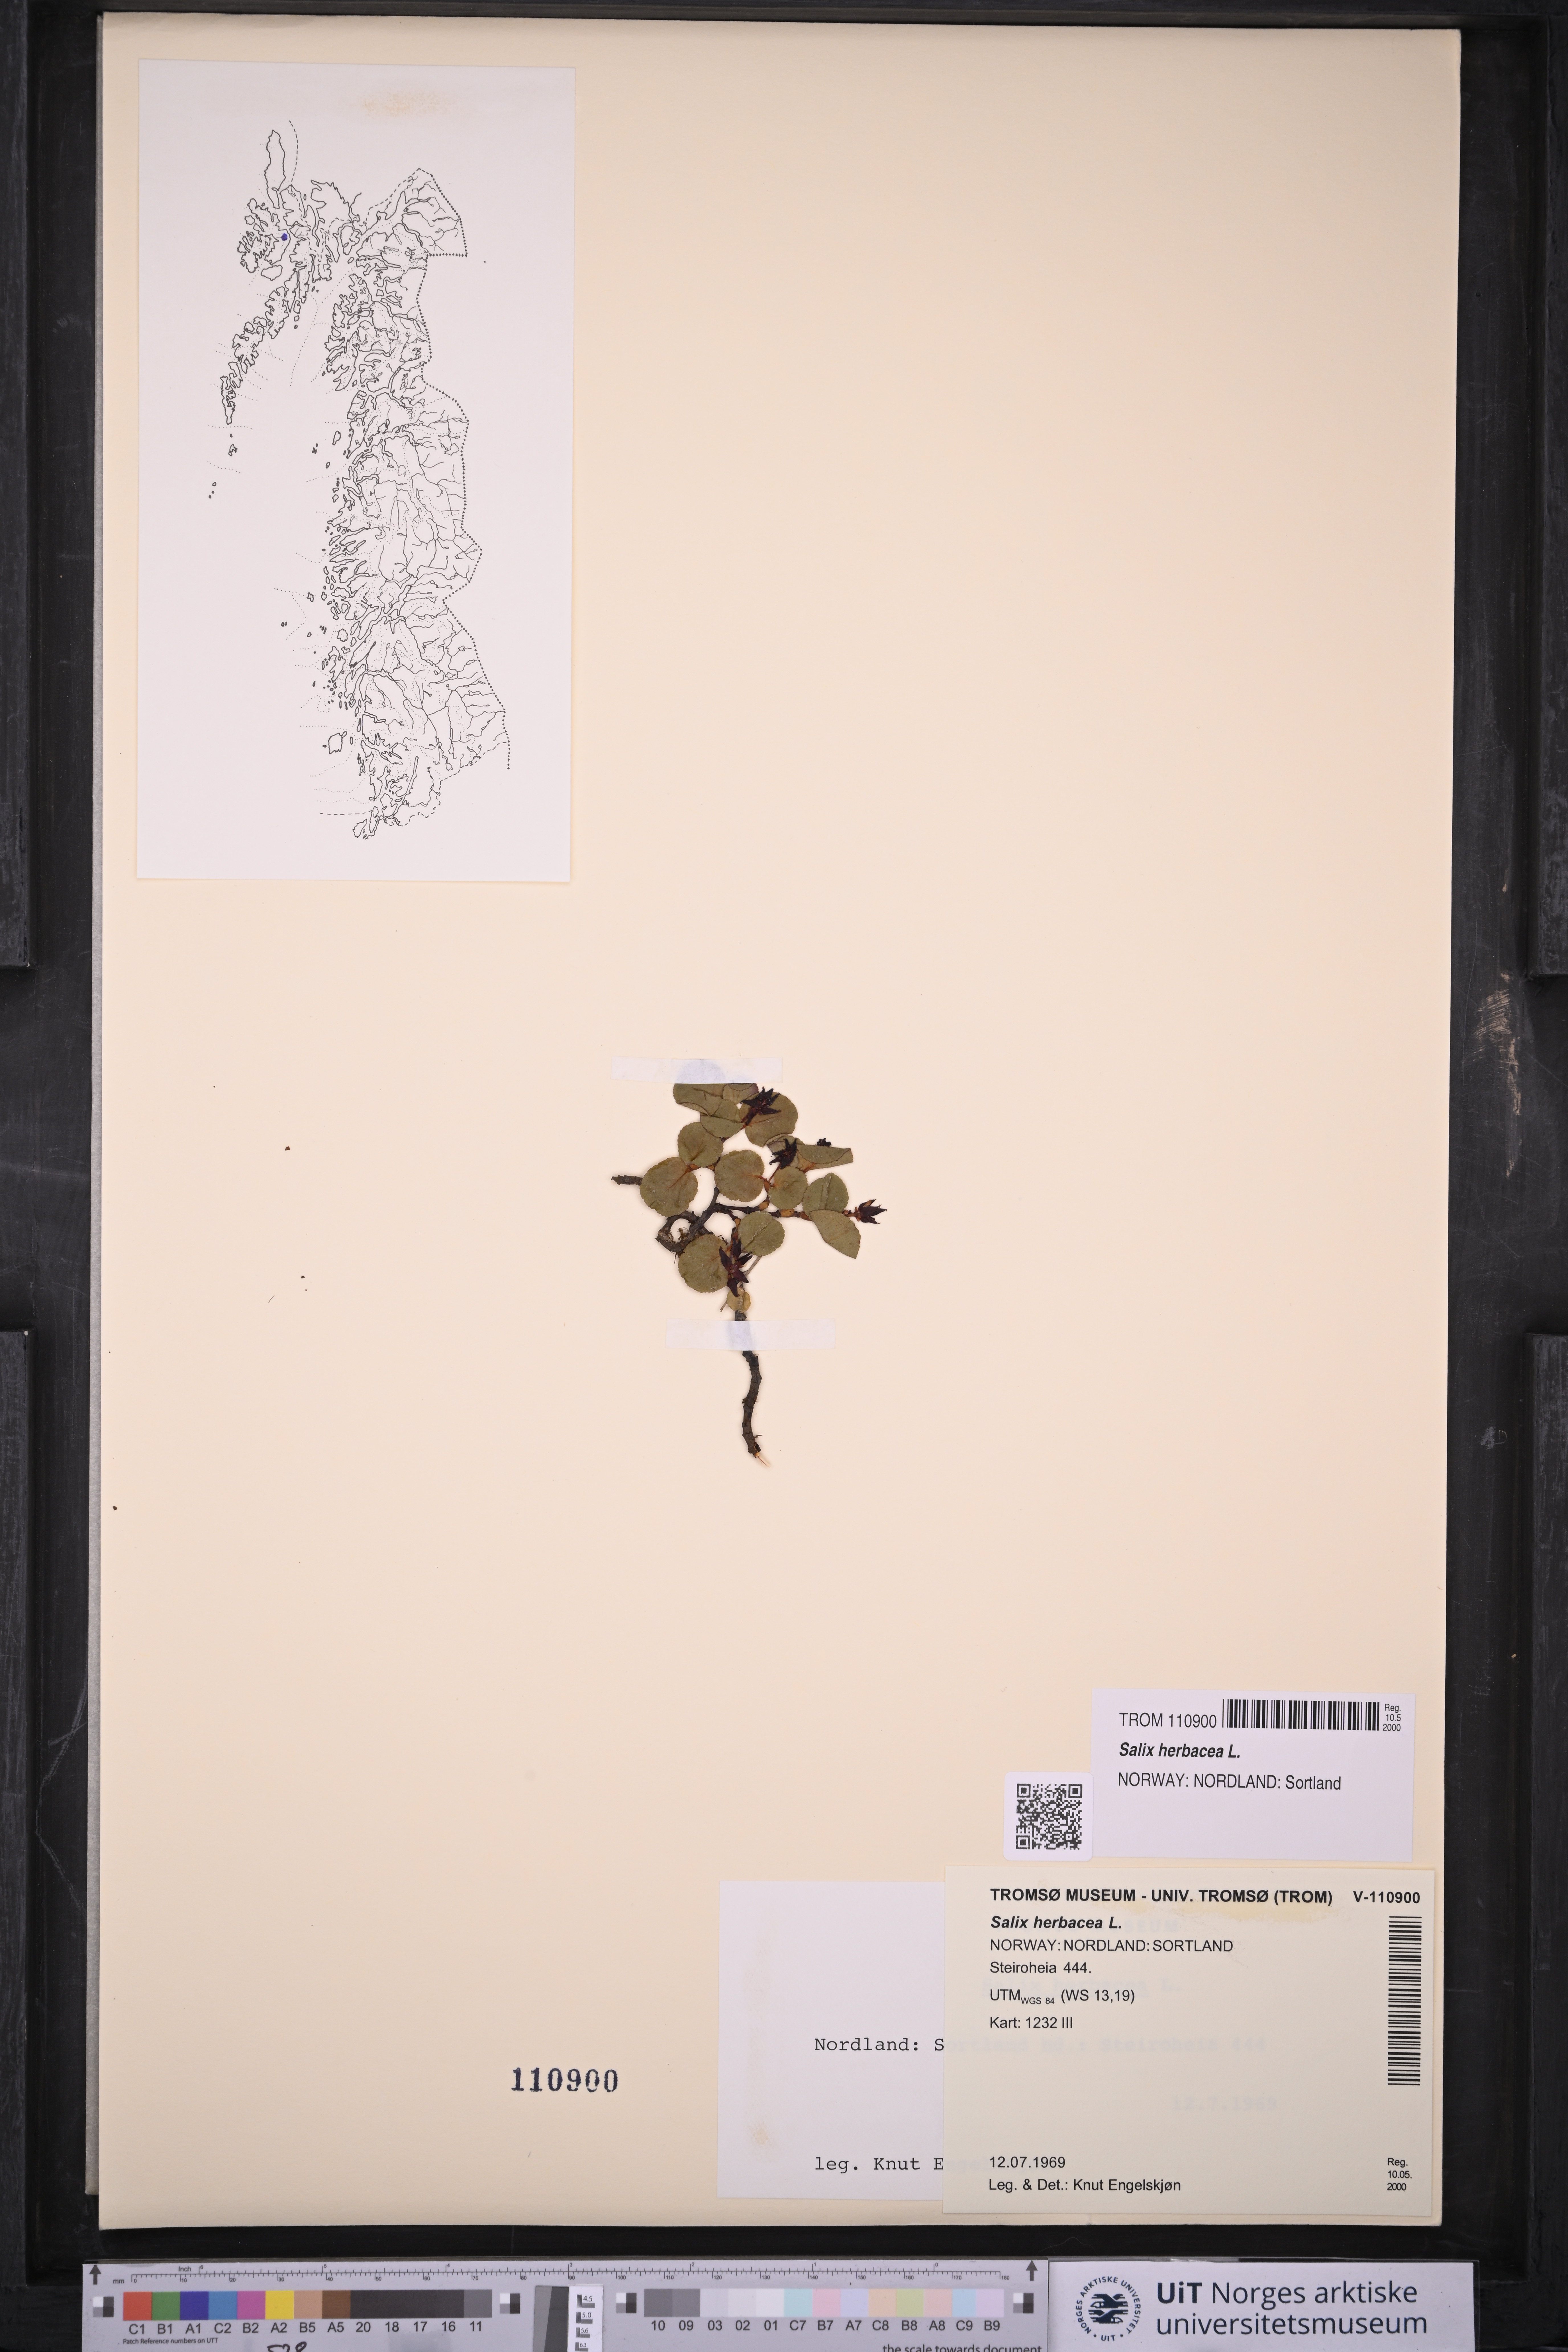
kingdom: Plantae
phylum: Tracheophyta
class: Magnoliopsida
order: Malpighiales
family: Salicaceae
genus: Salix
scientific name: Salix herbacea
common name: Dwarf willow
